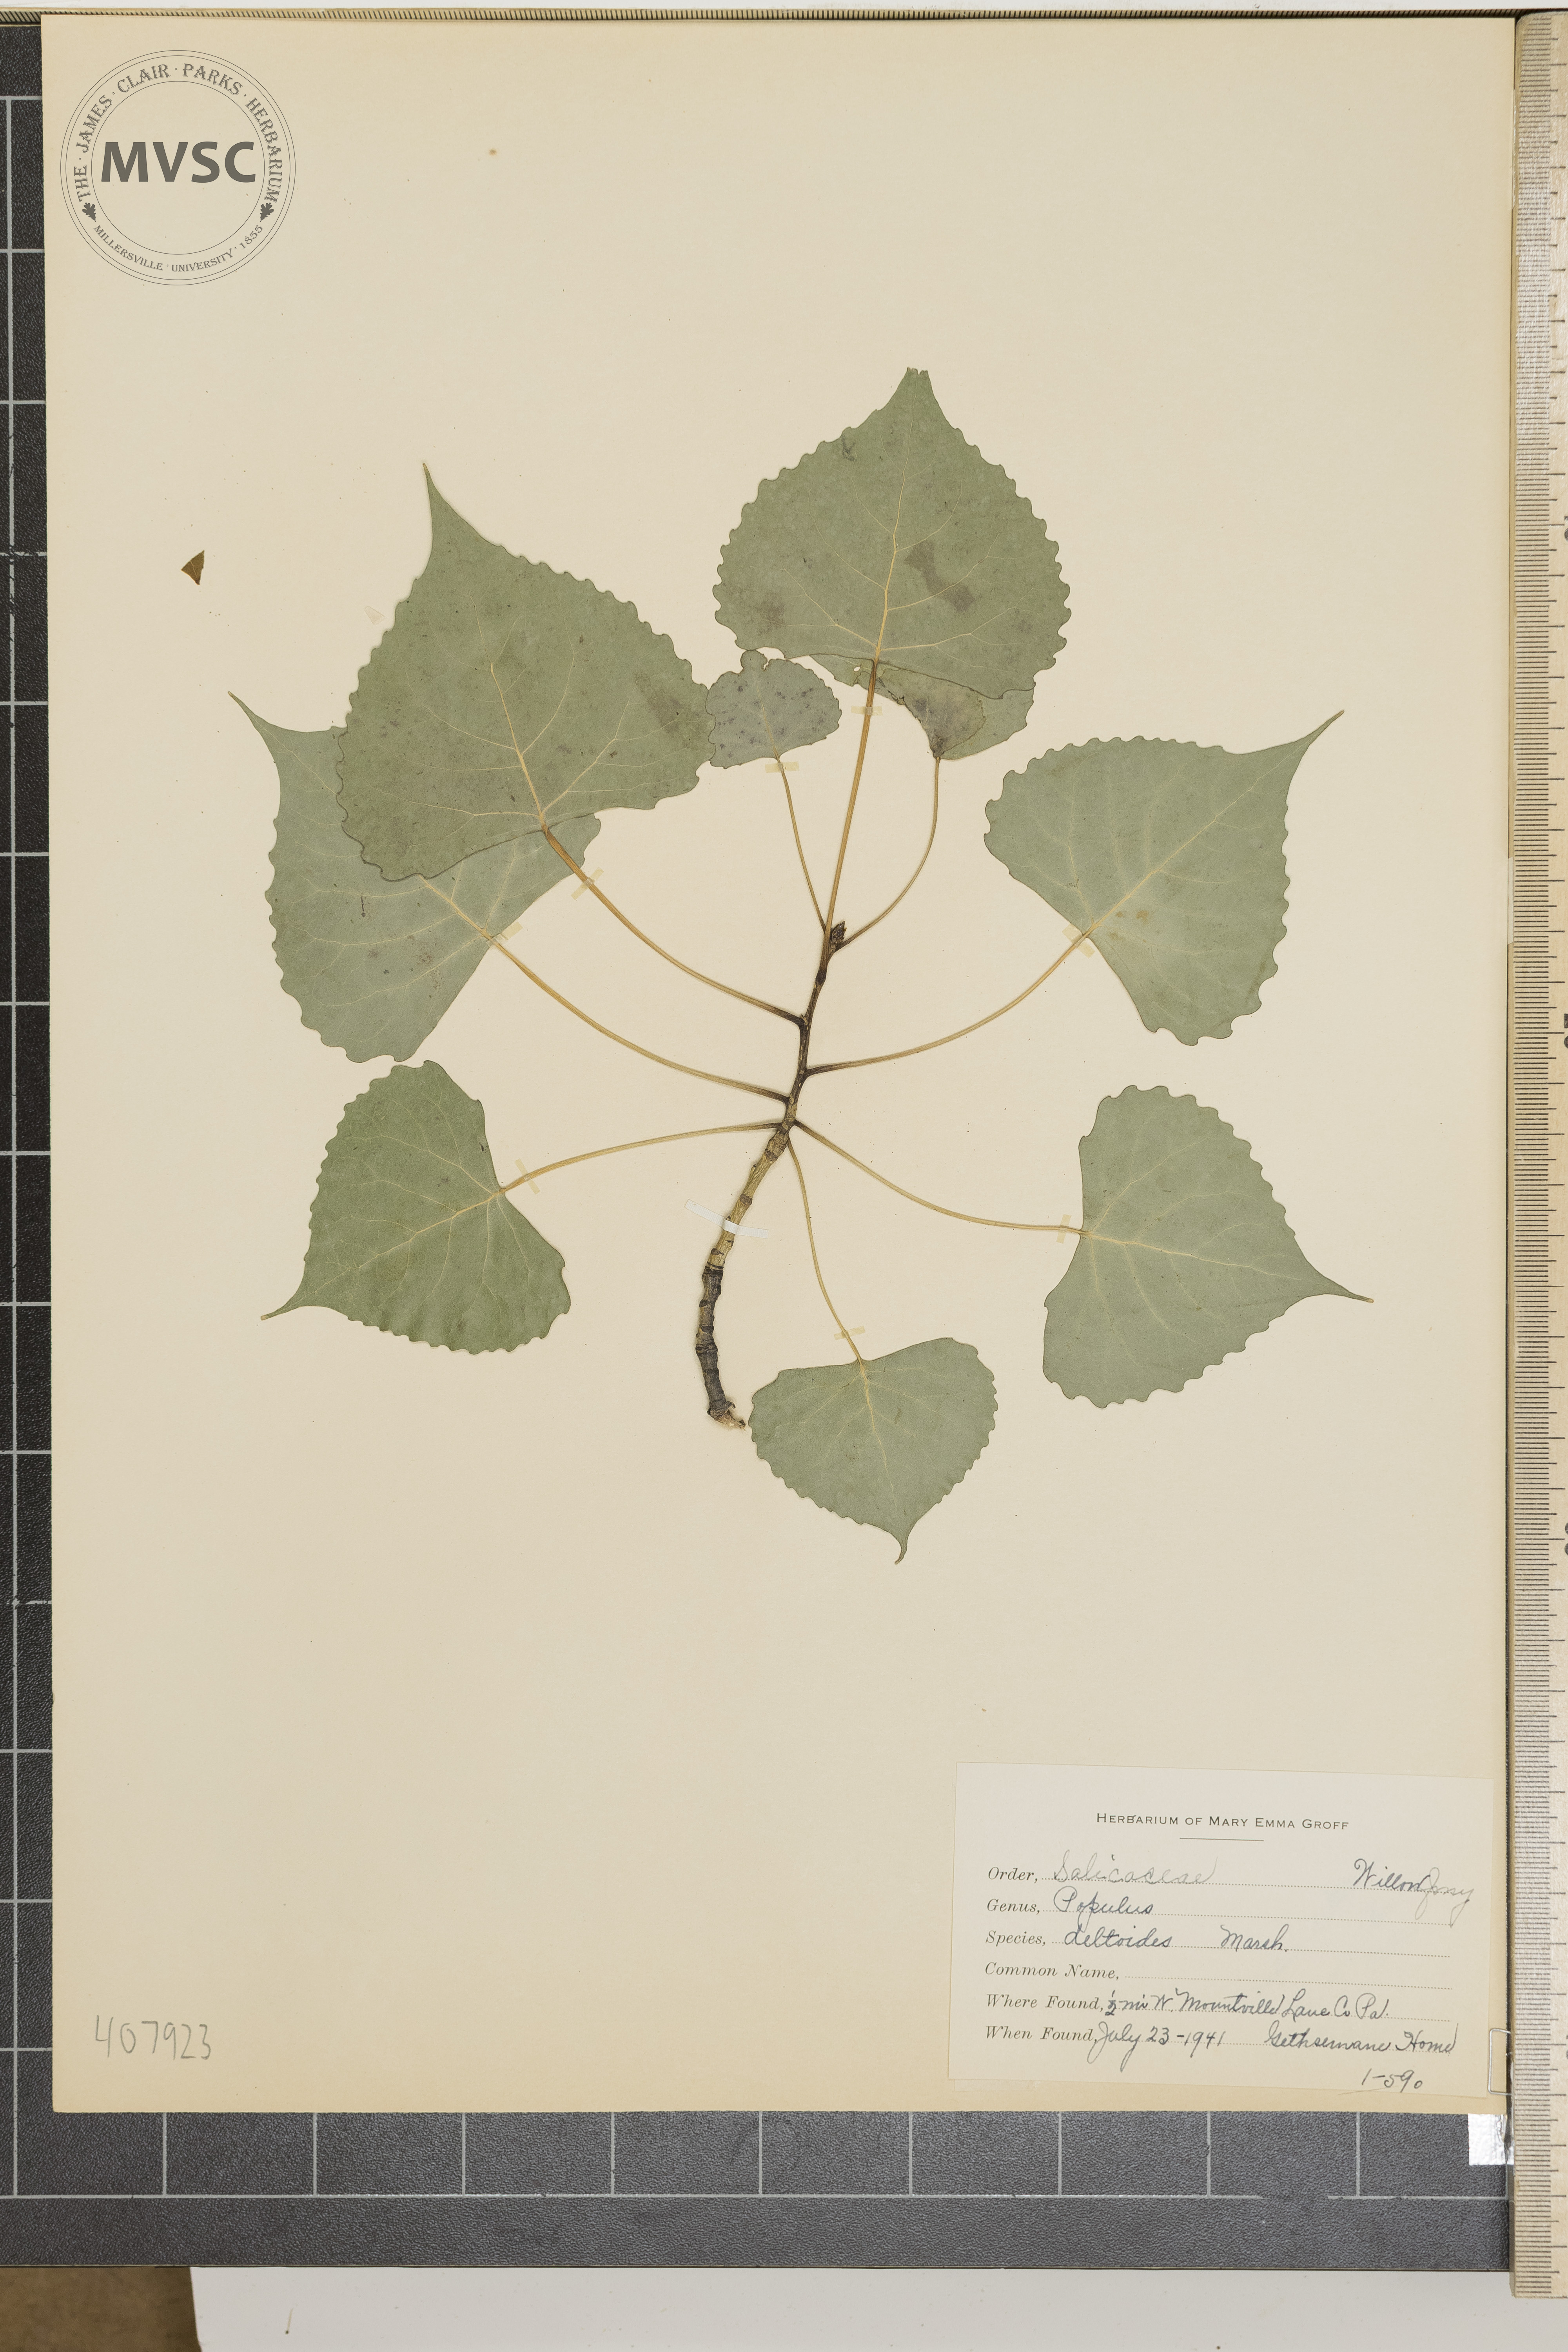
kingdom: Plantae
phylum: Tracheophyta
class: Magnoliopsida
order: Malpighiales
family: Salicaceae
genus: Populus
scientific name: Populus deltoides
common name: Eastern cottonwood
